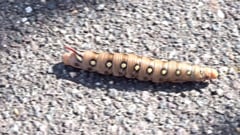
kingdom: Animalia
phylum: Arthropoda
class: Insecta
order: Lepidoptera
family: Sphingidae
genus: Hyles
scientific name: Hyles gallii
